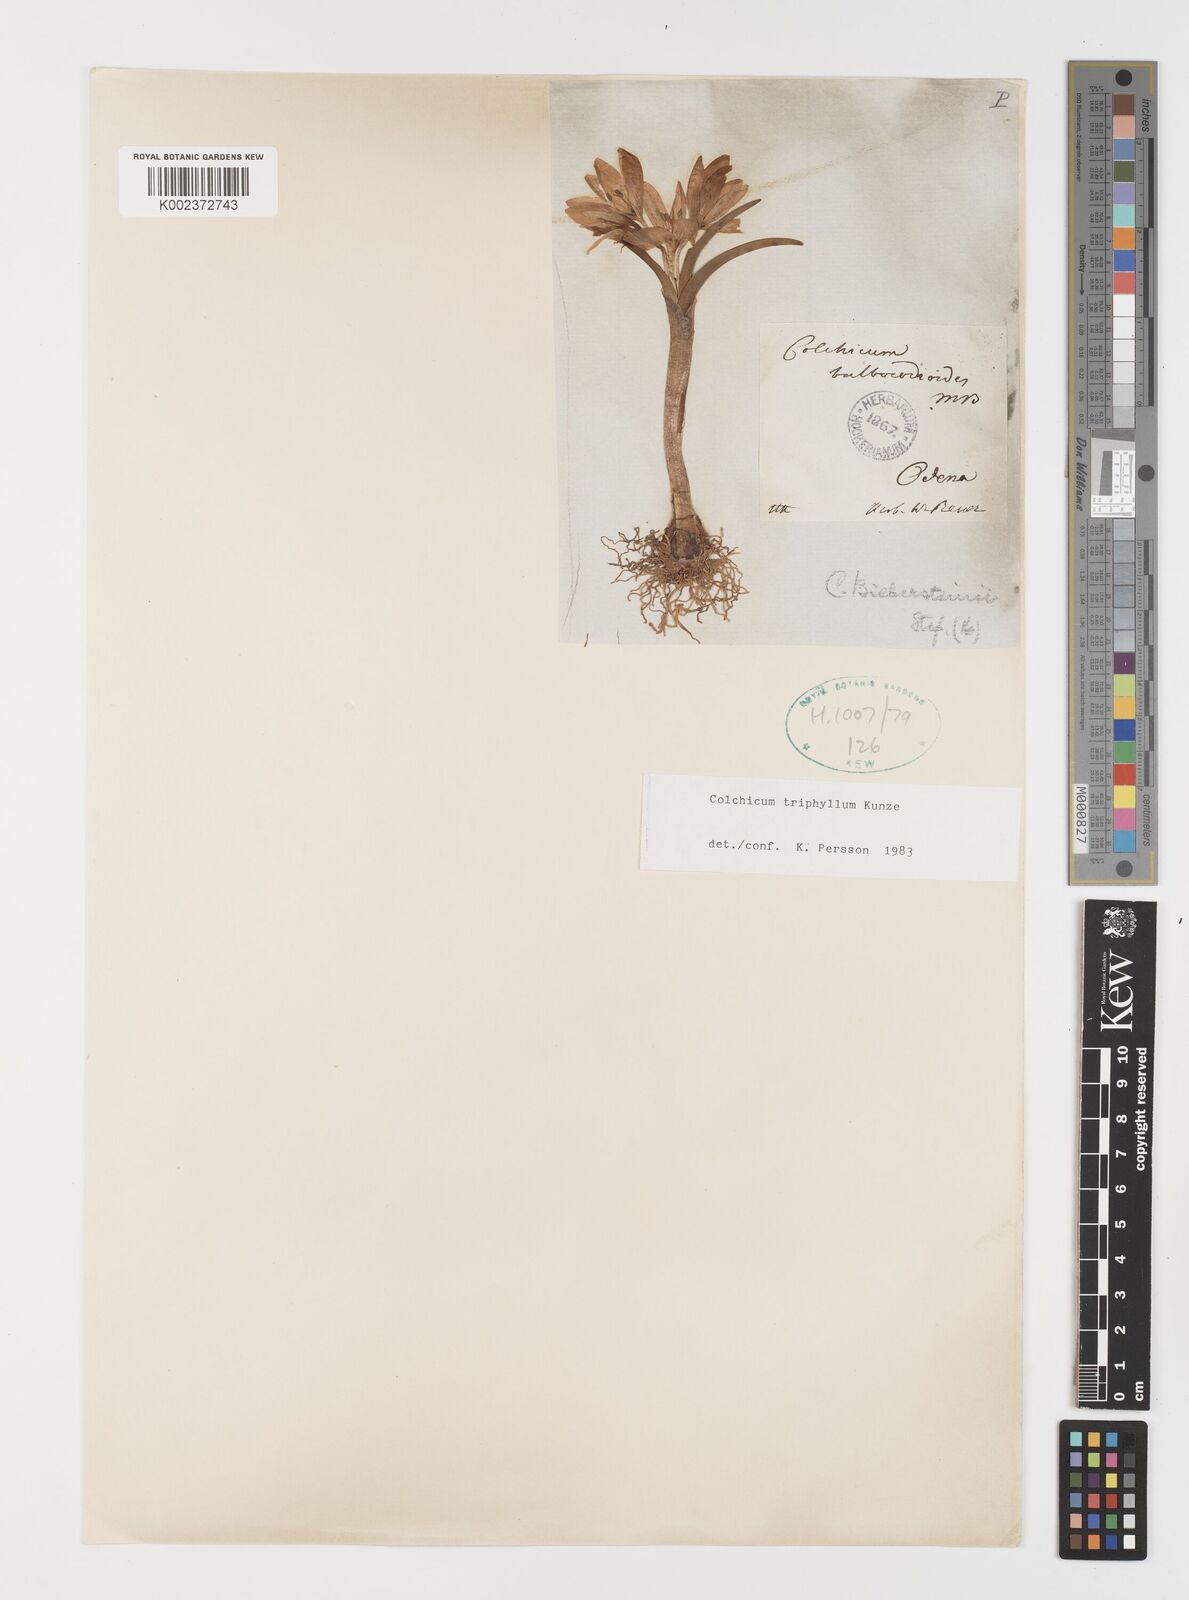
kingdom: Plantae
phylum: Tracheophyta
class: Liliopsida
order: Liliales
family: Colchicaceae
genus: Colchicum
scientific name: Colchicum triphyllum
